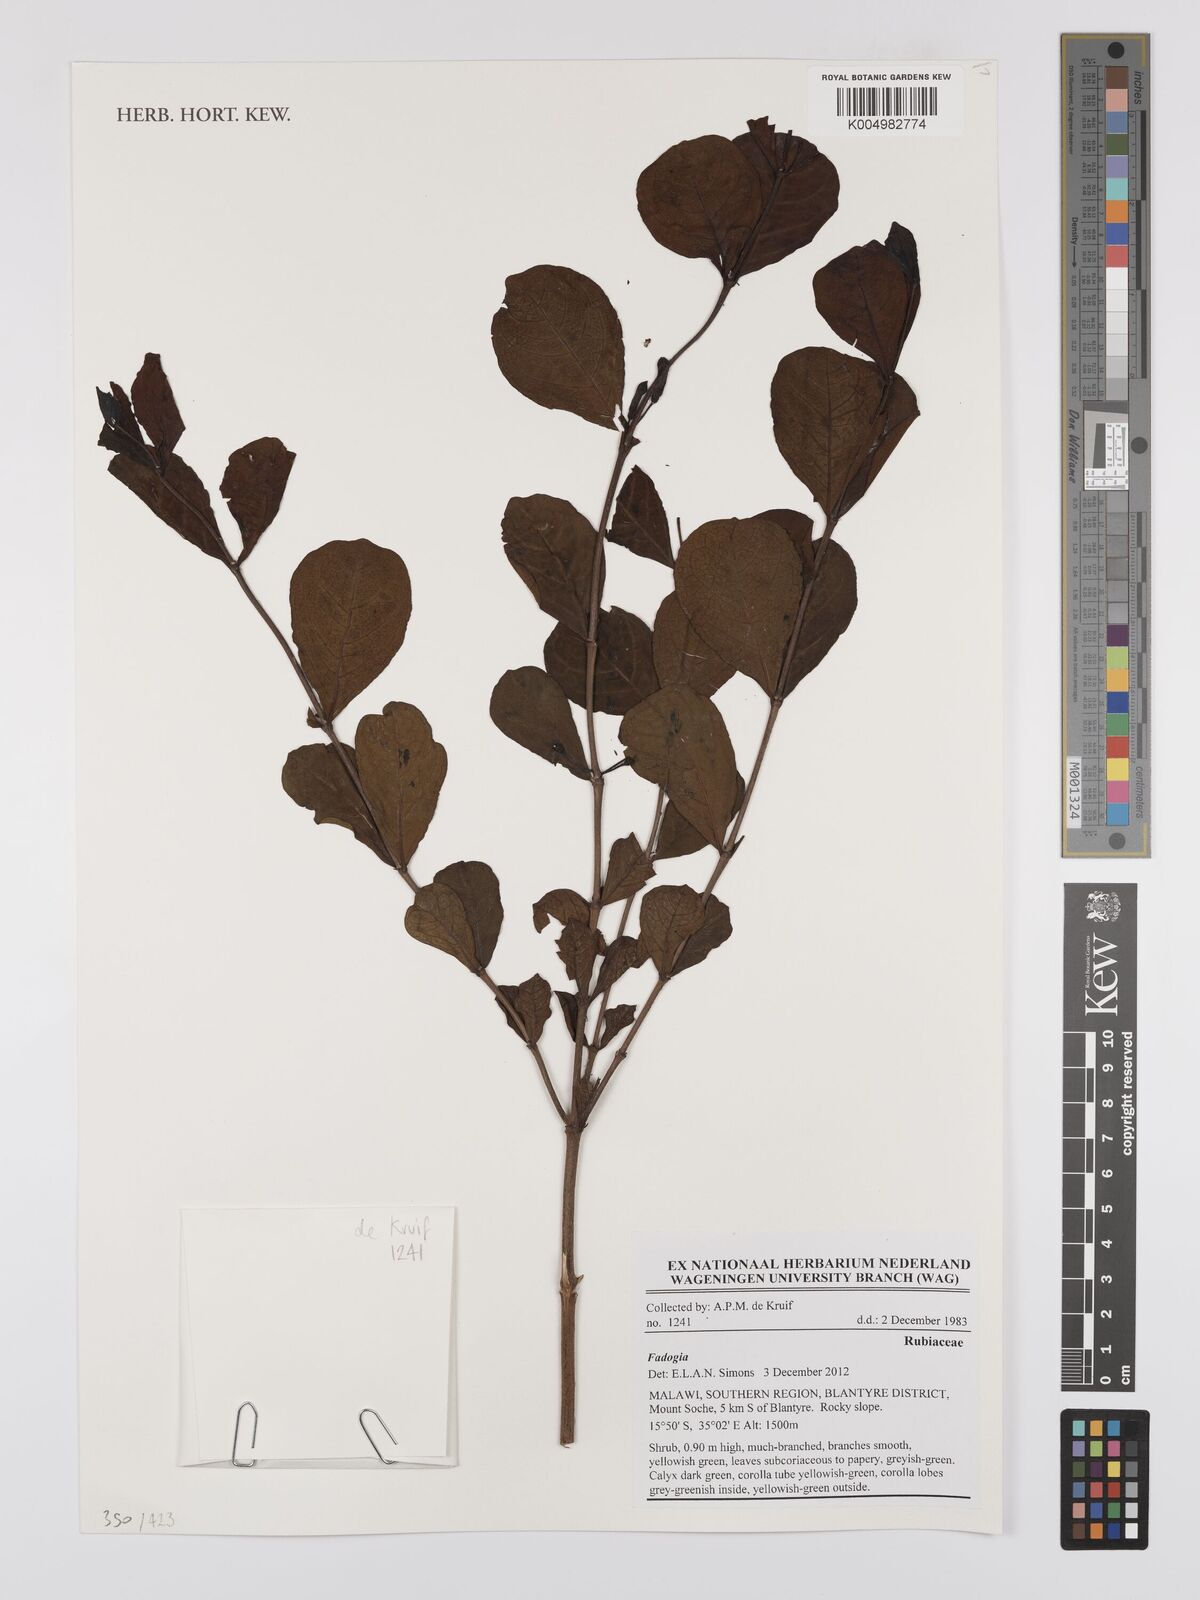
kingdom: Plantae
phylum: Tracheophyta
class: Magnoliopsida
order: Gentianales
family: Rubiaceae
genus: Fadogia
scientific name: Fadogia
